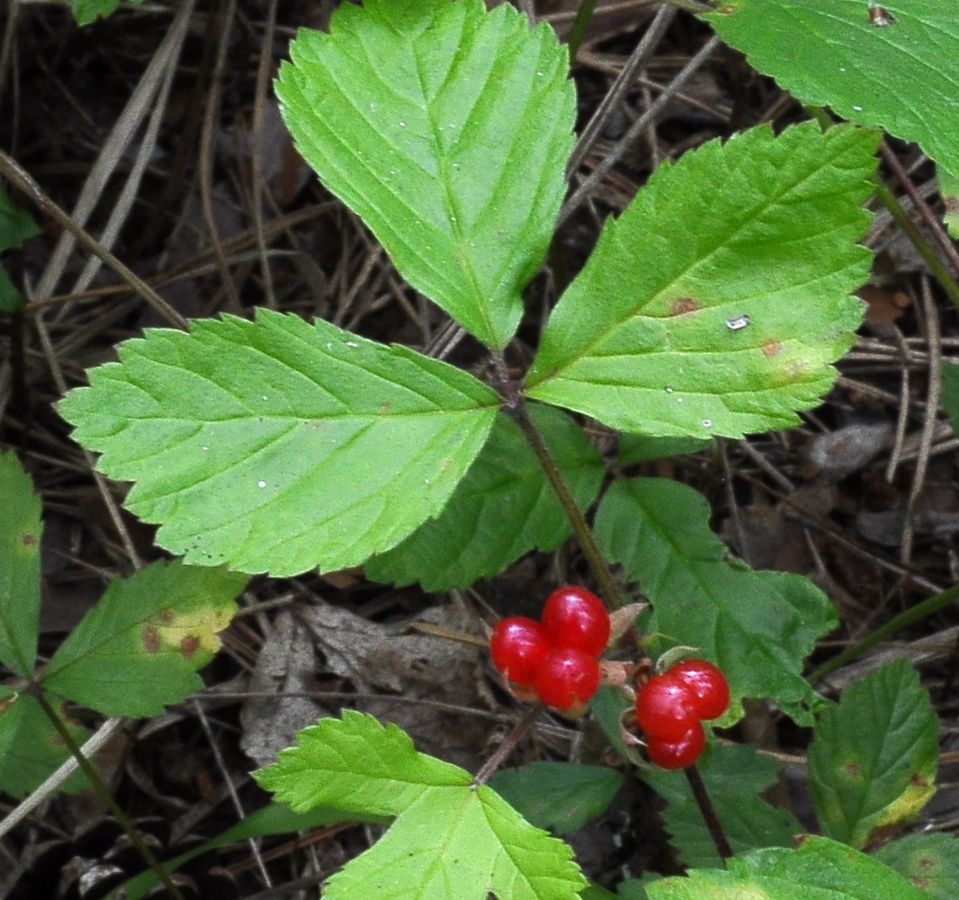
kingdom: Plantae
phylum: Tracheophyta
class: Magnoliopsida
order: Rosales
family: Rosaceae
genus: Rubus
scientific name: Rubus saxatilis
